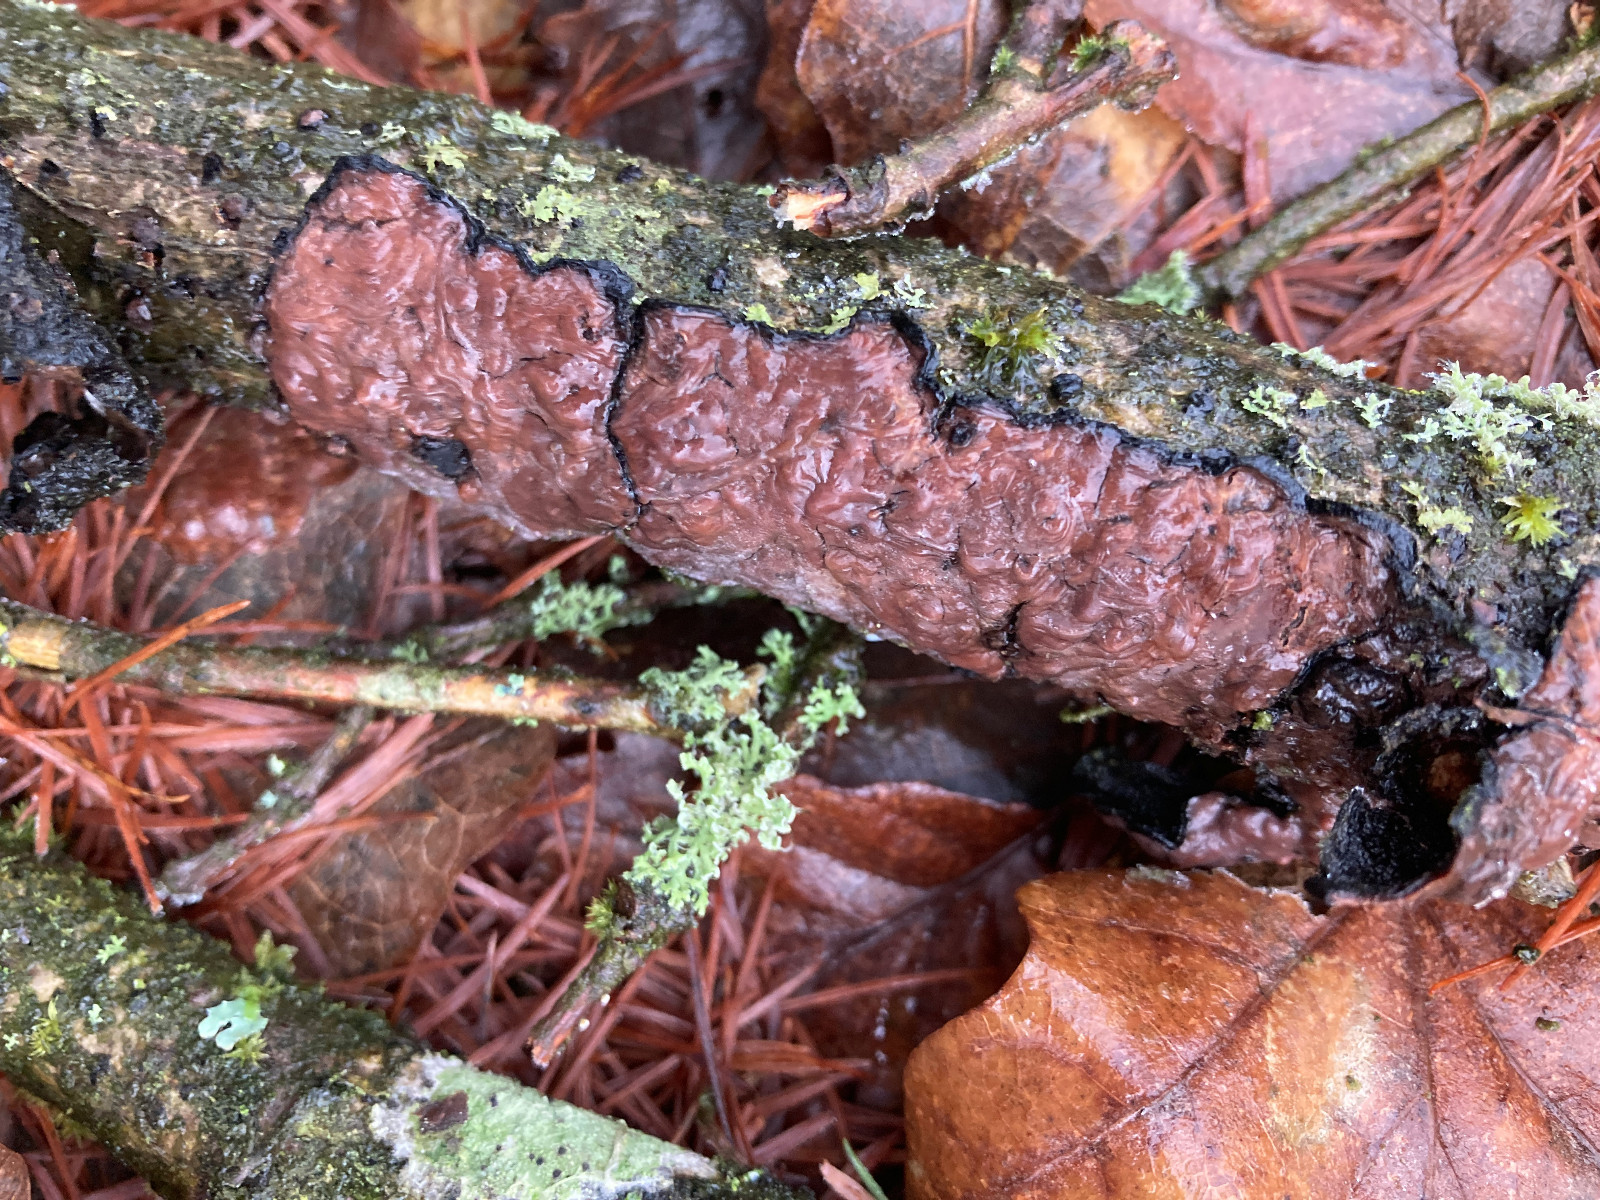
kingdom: Fungi
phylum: Basidiomycota
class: Agaricomycetes
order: Russulales
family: Peniophoraceae
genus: Peniophora
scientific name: Peniophora quercina
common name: ege-voksskind
